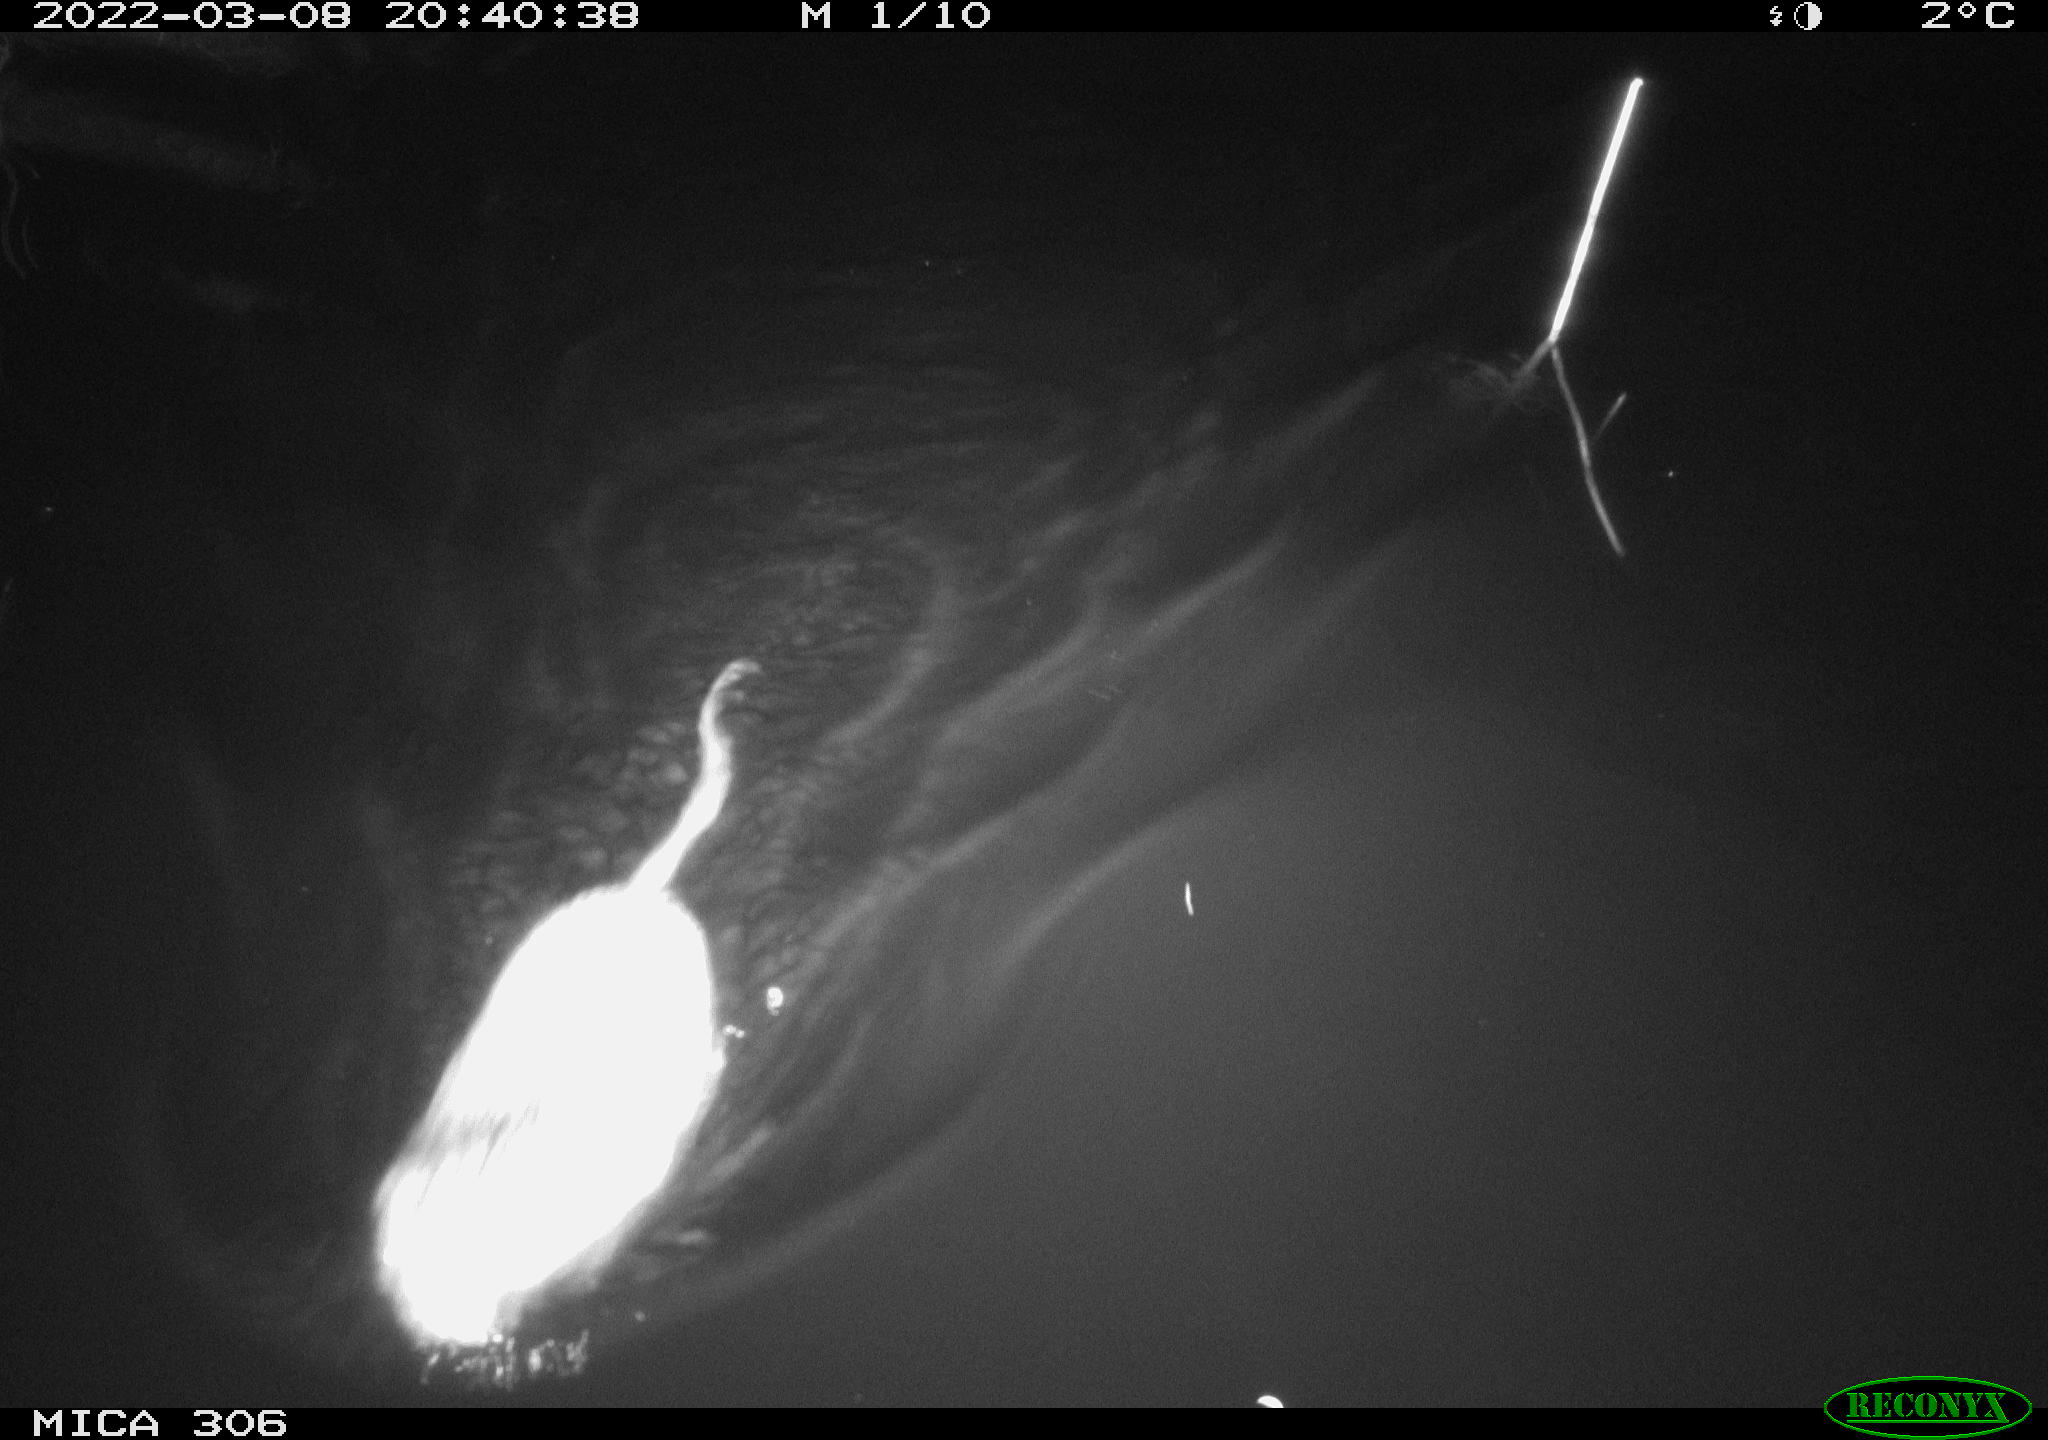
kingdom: Animalia
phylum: Chordata
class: Mammalia
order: Rodentia
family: Cricetidae
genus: Ondatra
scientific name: Ondatra zibethicus
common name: Muskrat
